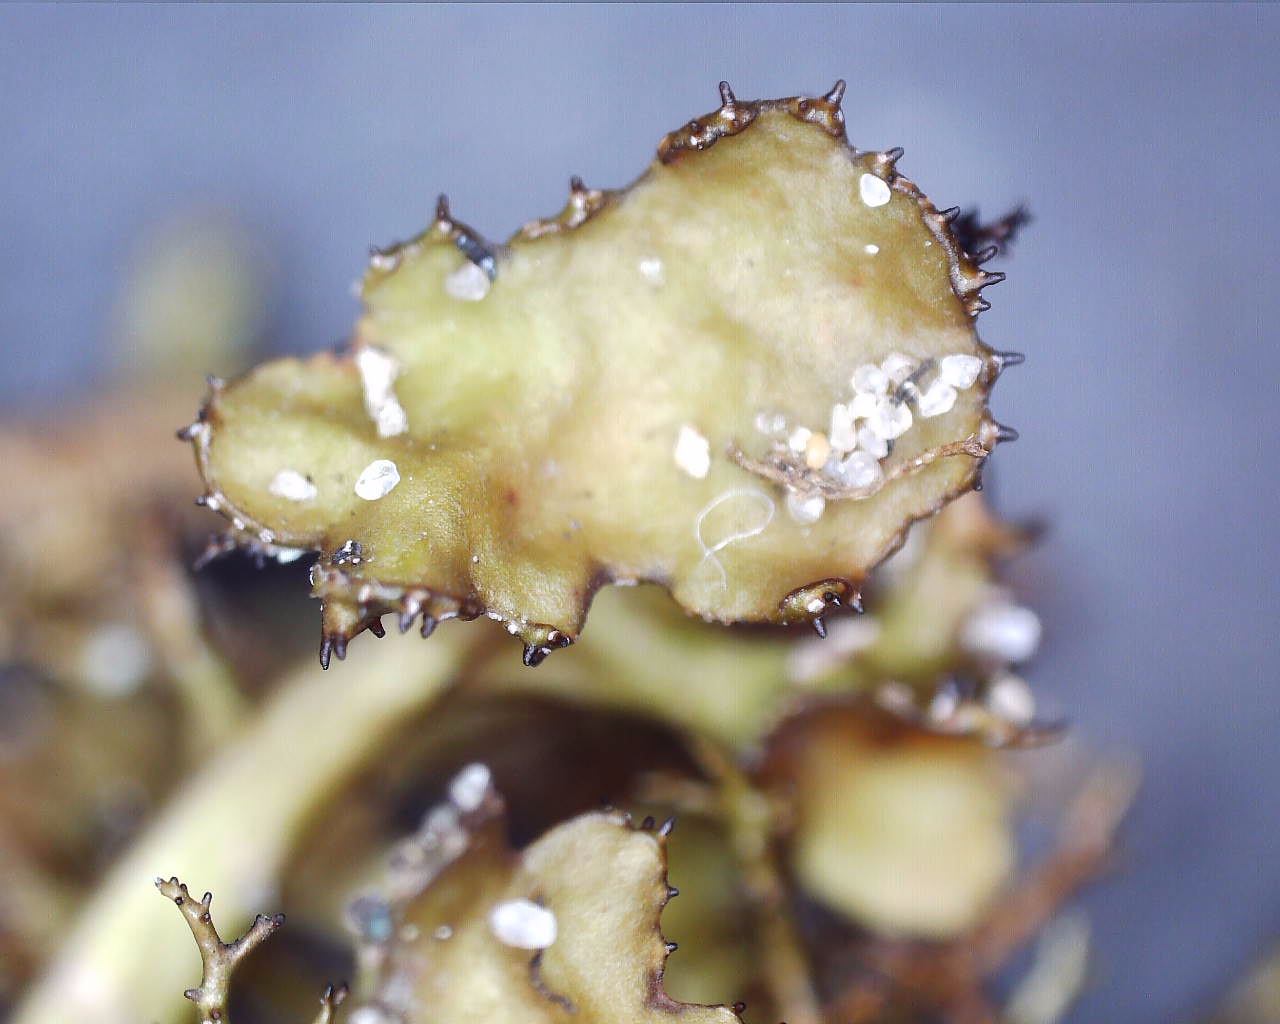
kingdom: Fungi
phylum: Ascomycota
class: Lecanoromycetes
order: Lecanorales
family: Parmeliaceae
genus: Cetraria
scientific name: Cetraria aculeata
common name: grubet tjørnelav
